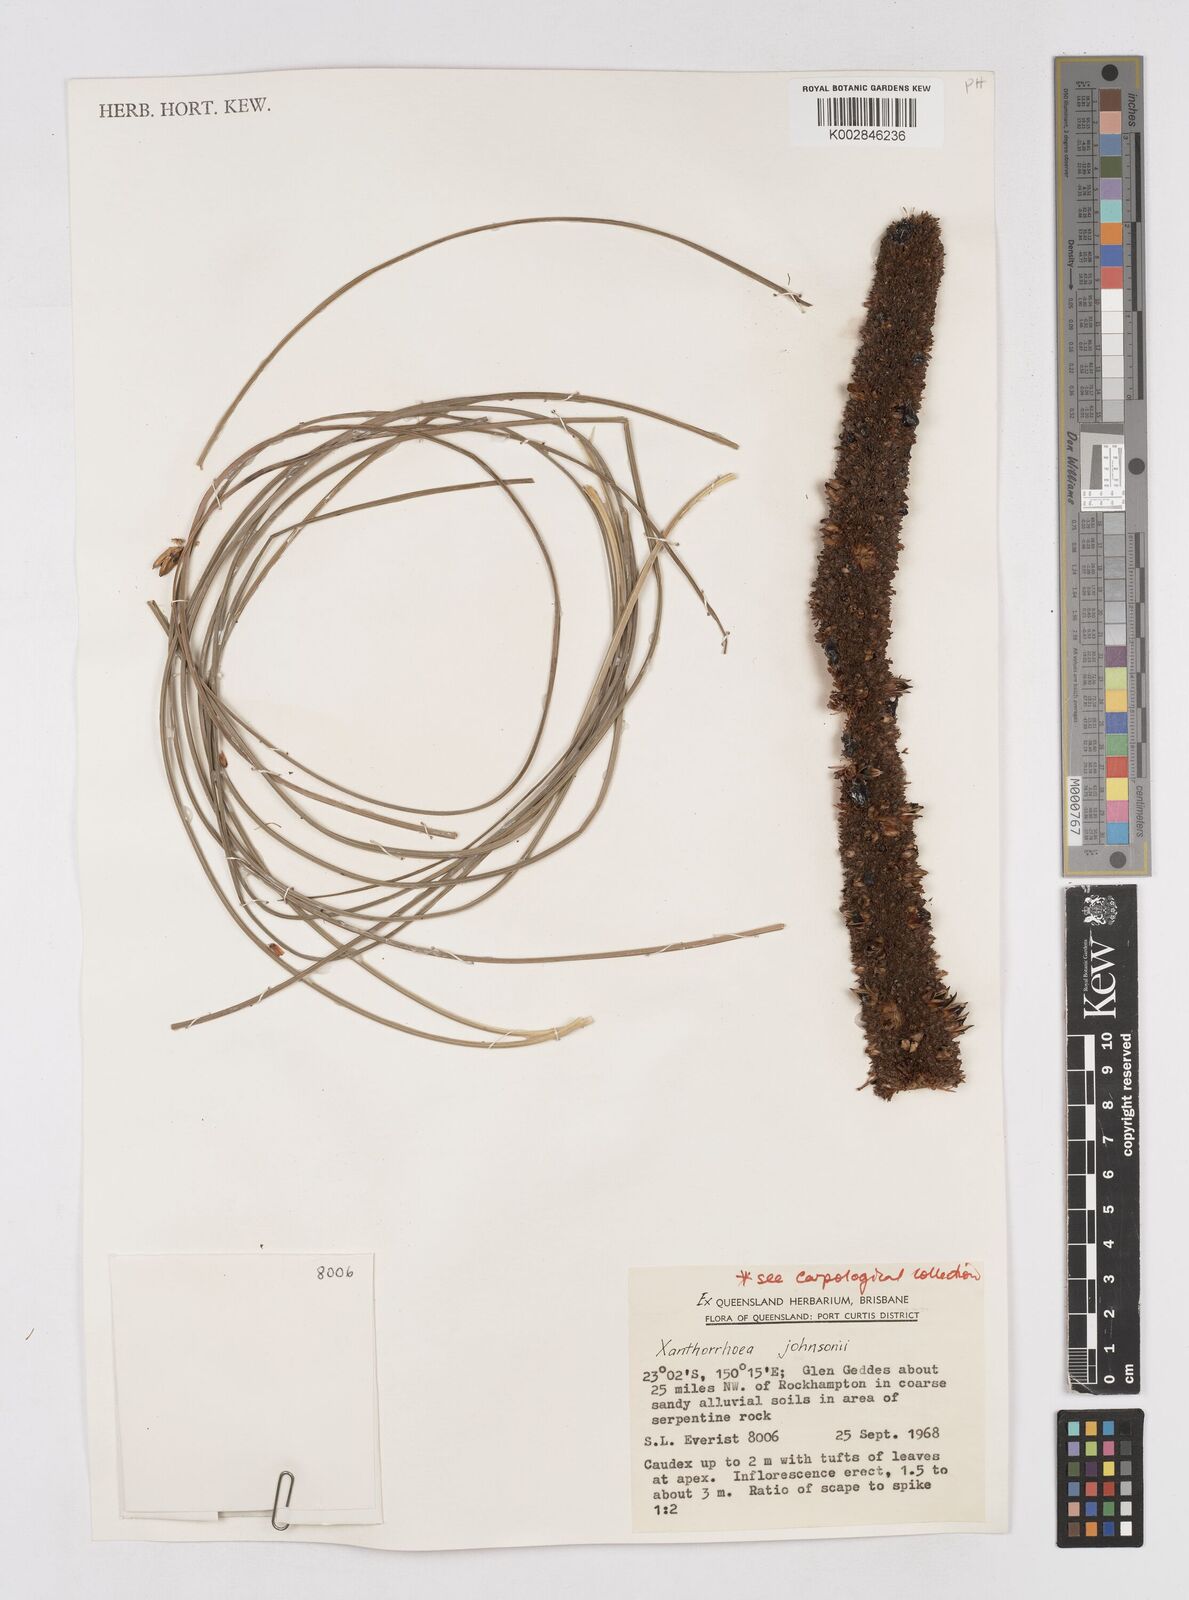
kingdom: Plantae
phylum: Tracheophyta
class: Liliopsida
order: Asparagales
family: Asphodelaceae
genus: Xanthorrhoea
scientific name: Xanthorrhoea johnsonii
